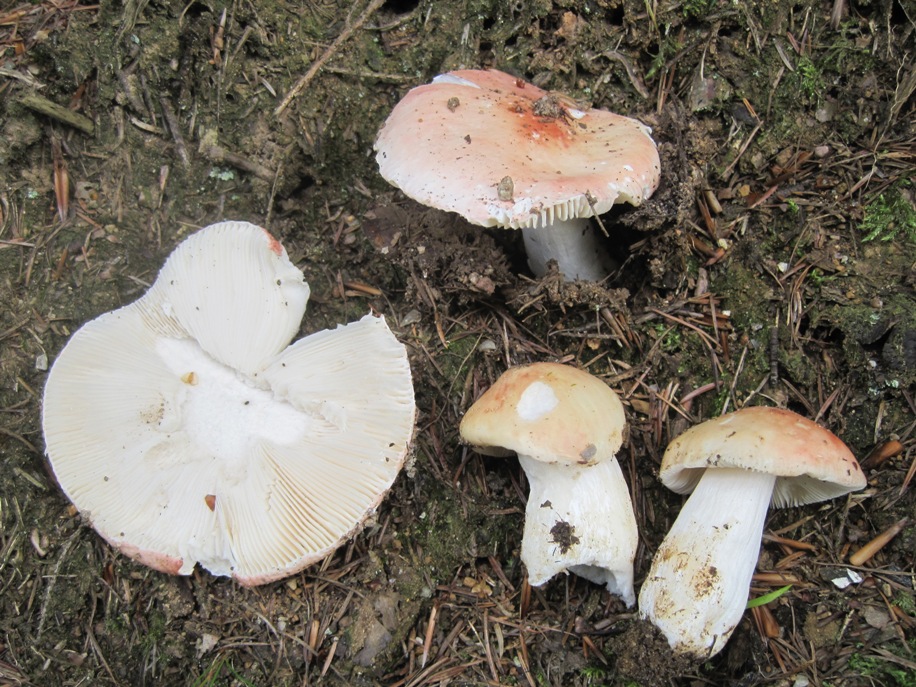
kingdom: Fungi
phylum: Basidiomycota
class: Agaricomycetes
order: Russulales
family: Russulaceae
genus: Russula
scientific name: Russula
